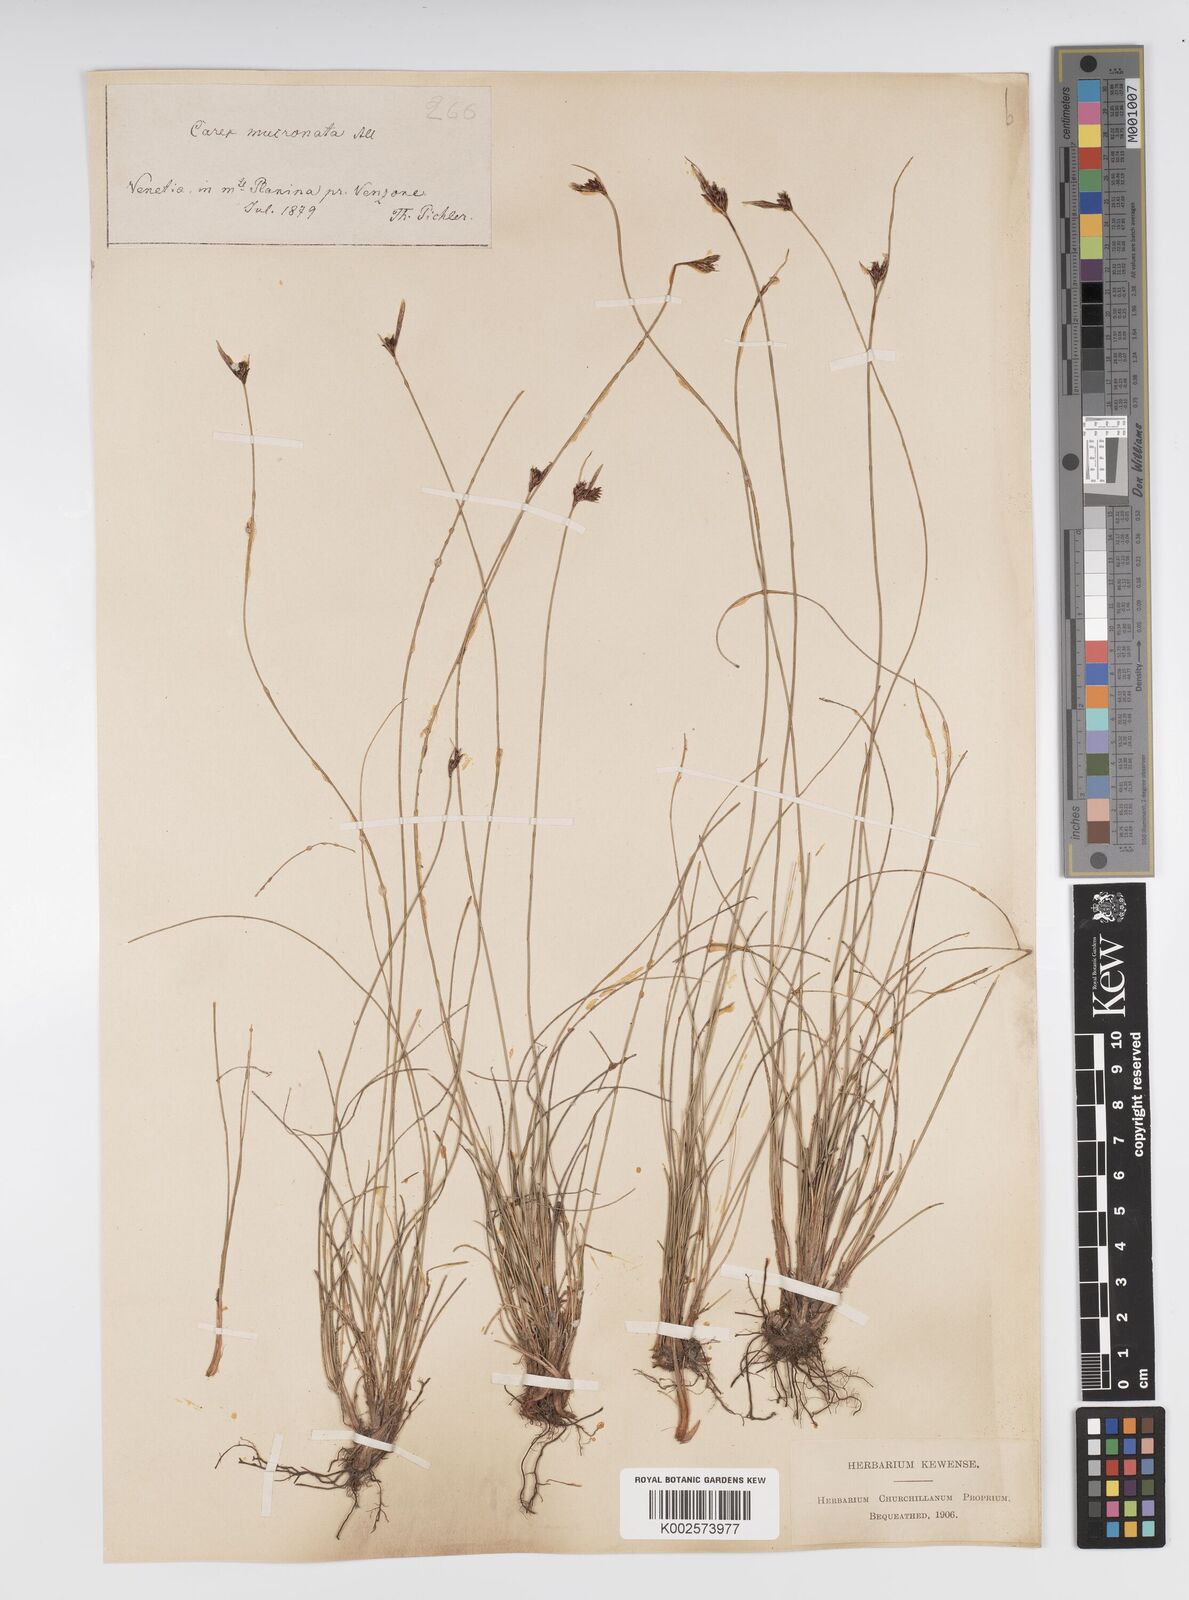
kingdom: Plantae
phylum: Tracheophyta
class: Liliopsida
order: Poales
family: Cyperaceae
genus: Carex
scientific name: Carex mucronata
